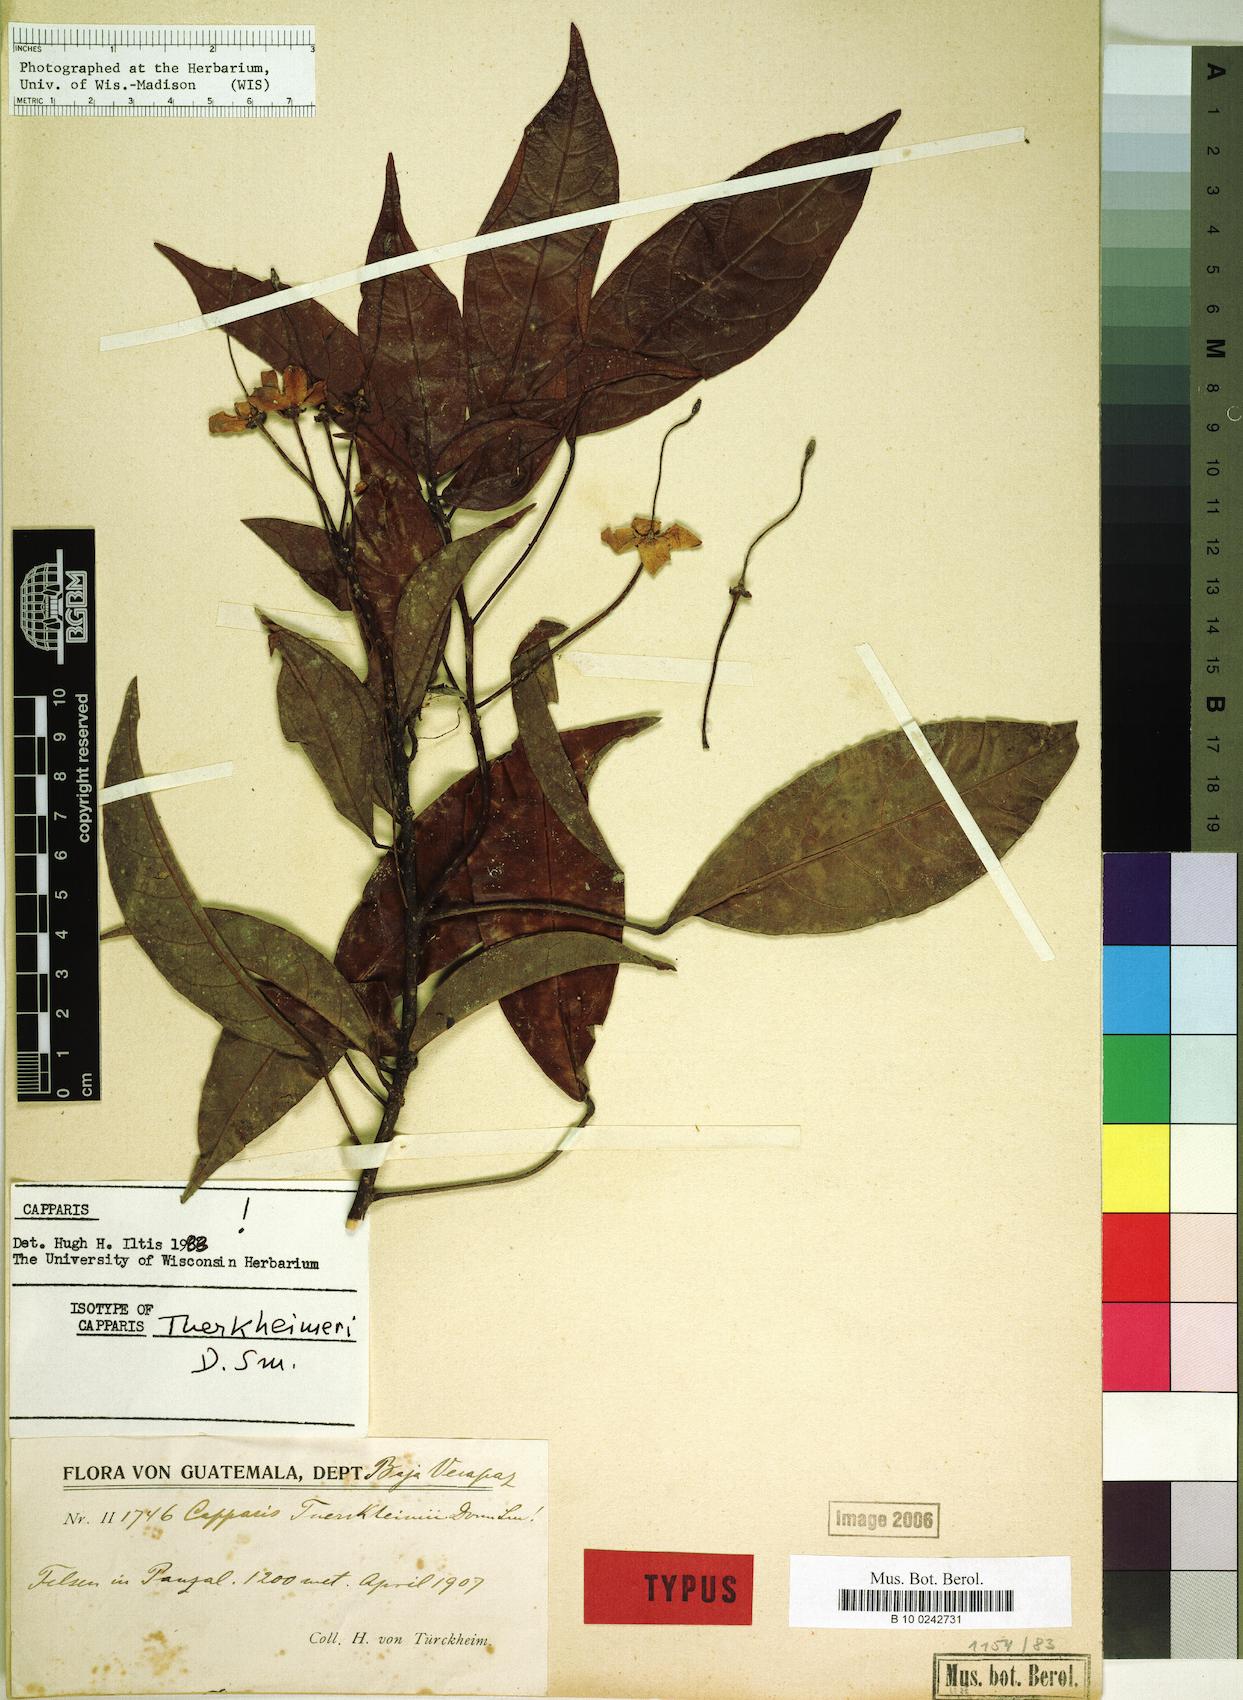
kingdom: Plantae
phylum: Tracheophyta
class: Magnoliopsida
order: Brassicales
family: Capparaceae
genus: Capparidastrum
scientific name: Capparidastrum discolor
